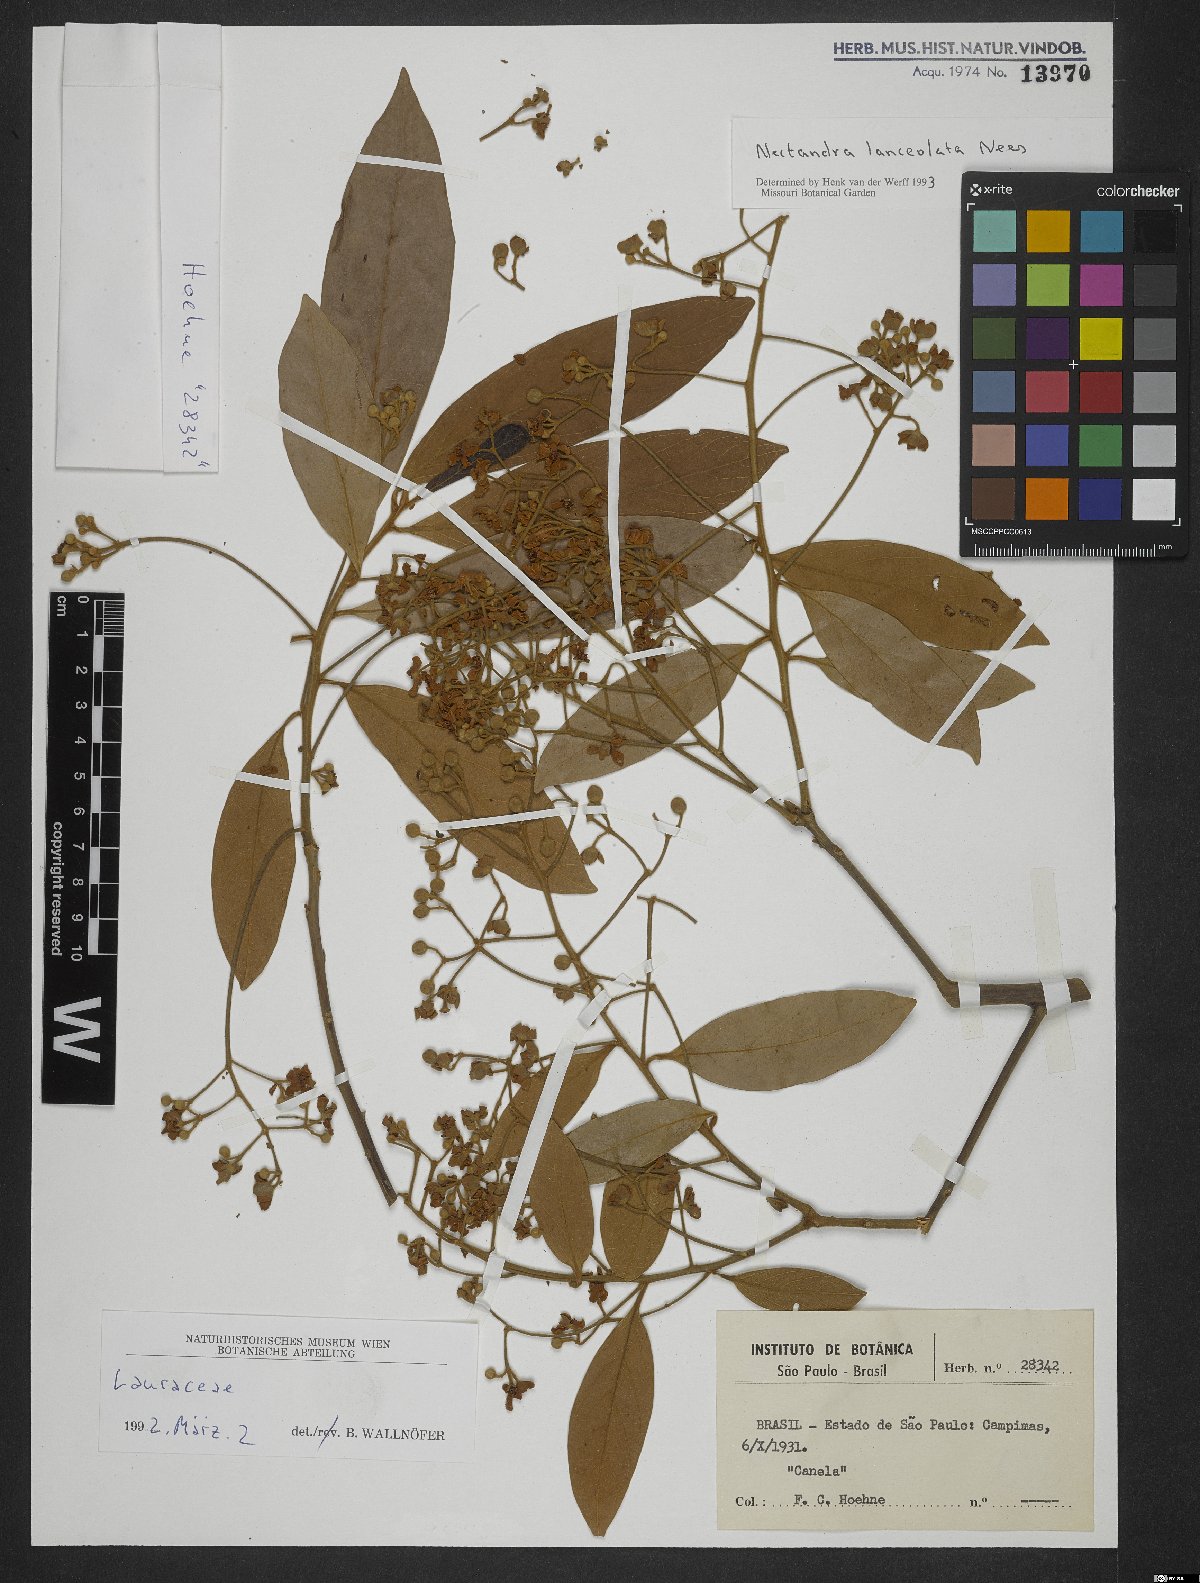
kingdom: Plantae
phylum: Tracheophyta
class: Magnoliopsida
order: Laurales
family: Lauraceae
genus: Nectandra
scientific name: Nectandra lanceolata
